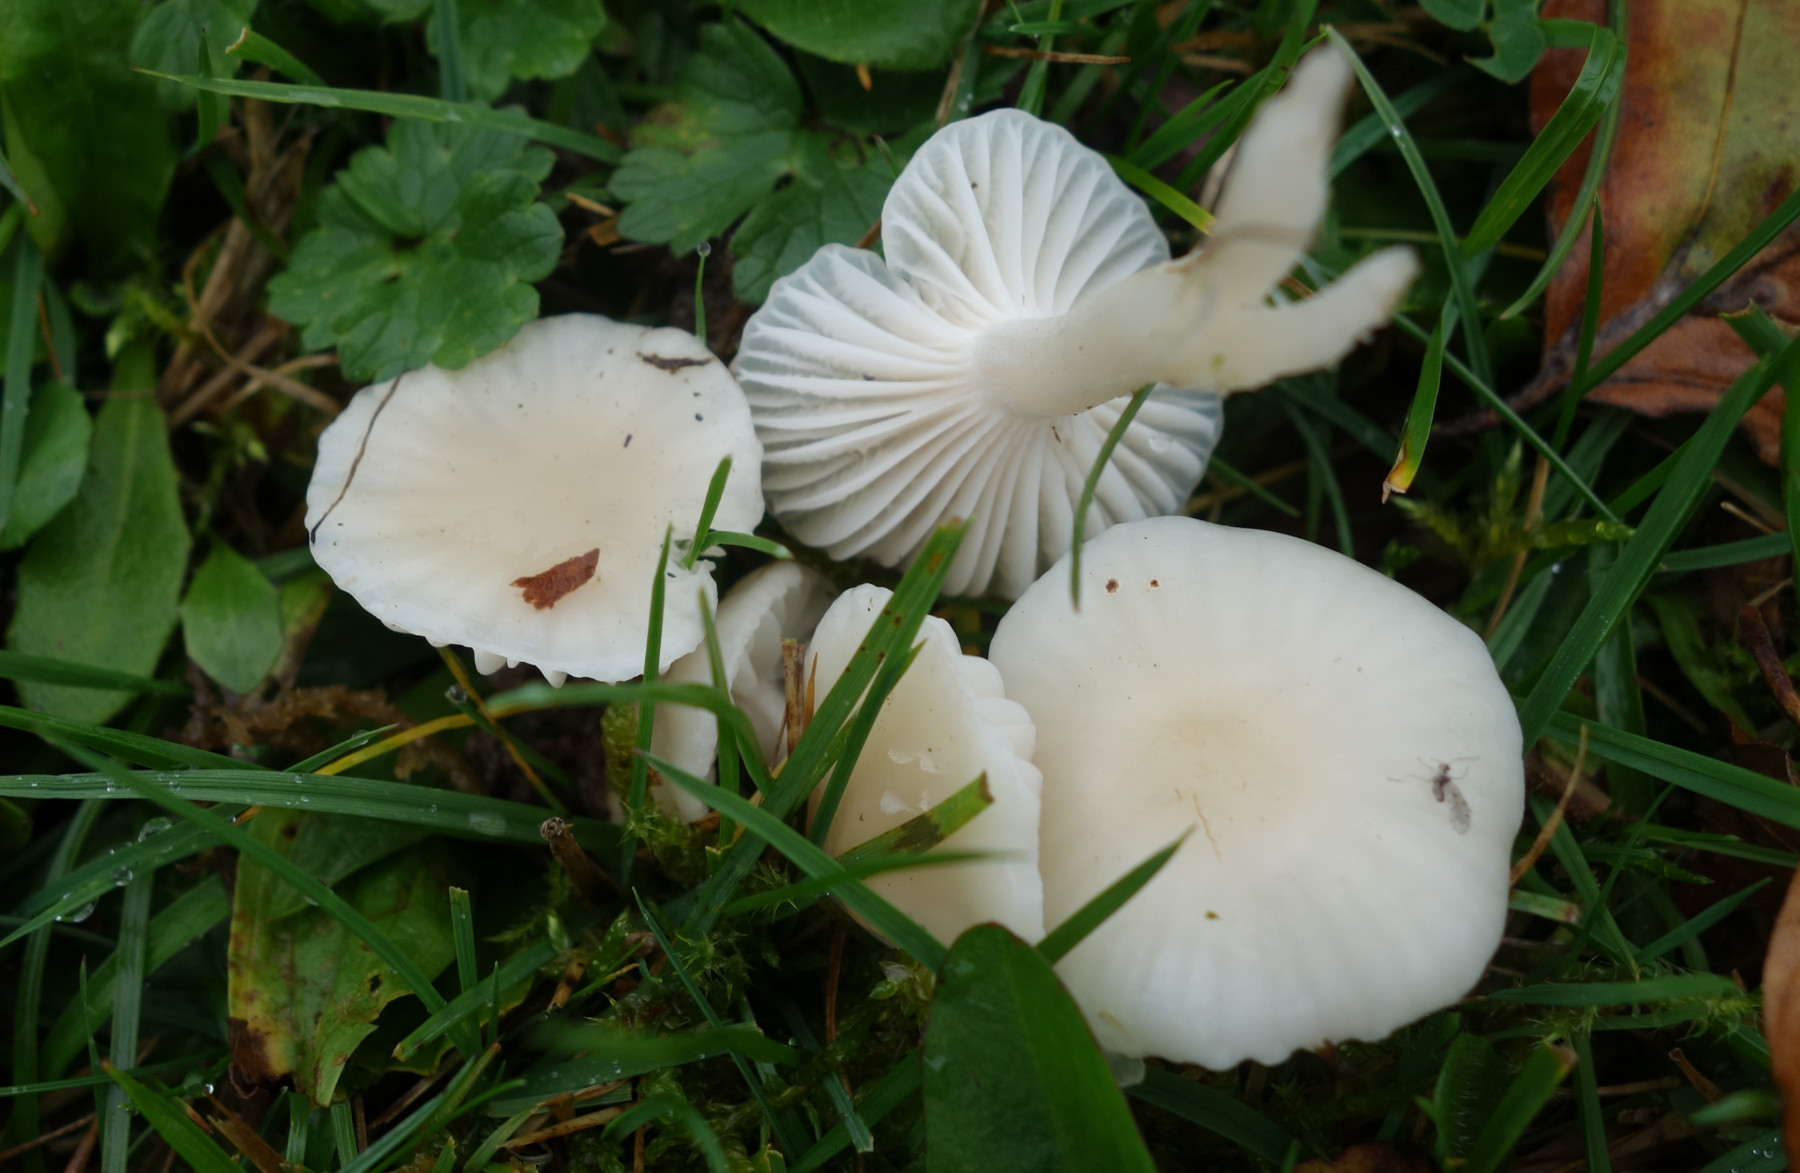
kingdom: Fungi
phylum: Basidiomycota
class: Agaricomycetes
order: Agaricales
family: Hygrophoraceae
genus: Cuphophyllus
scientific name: Cuphophyllus virgineus
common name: snehvid vokshat
